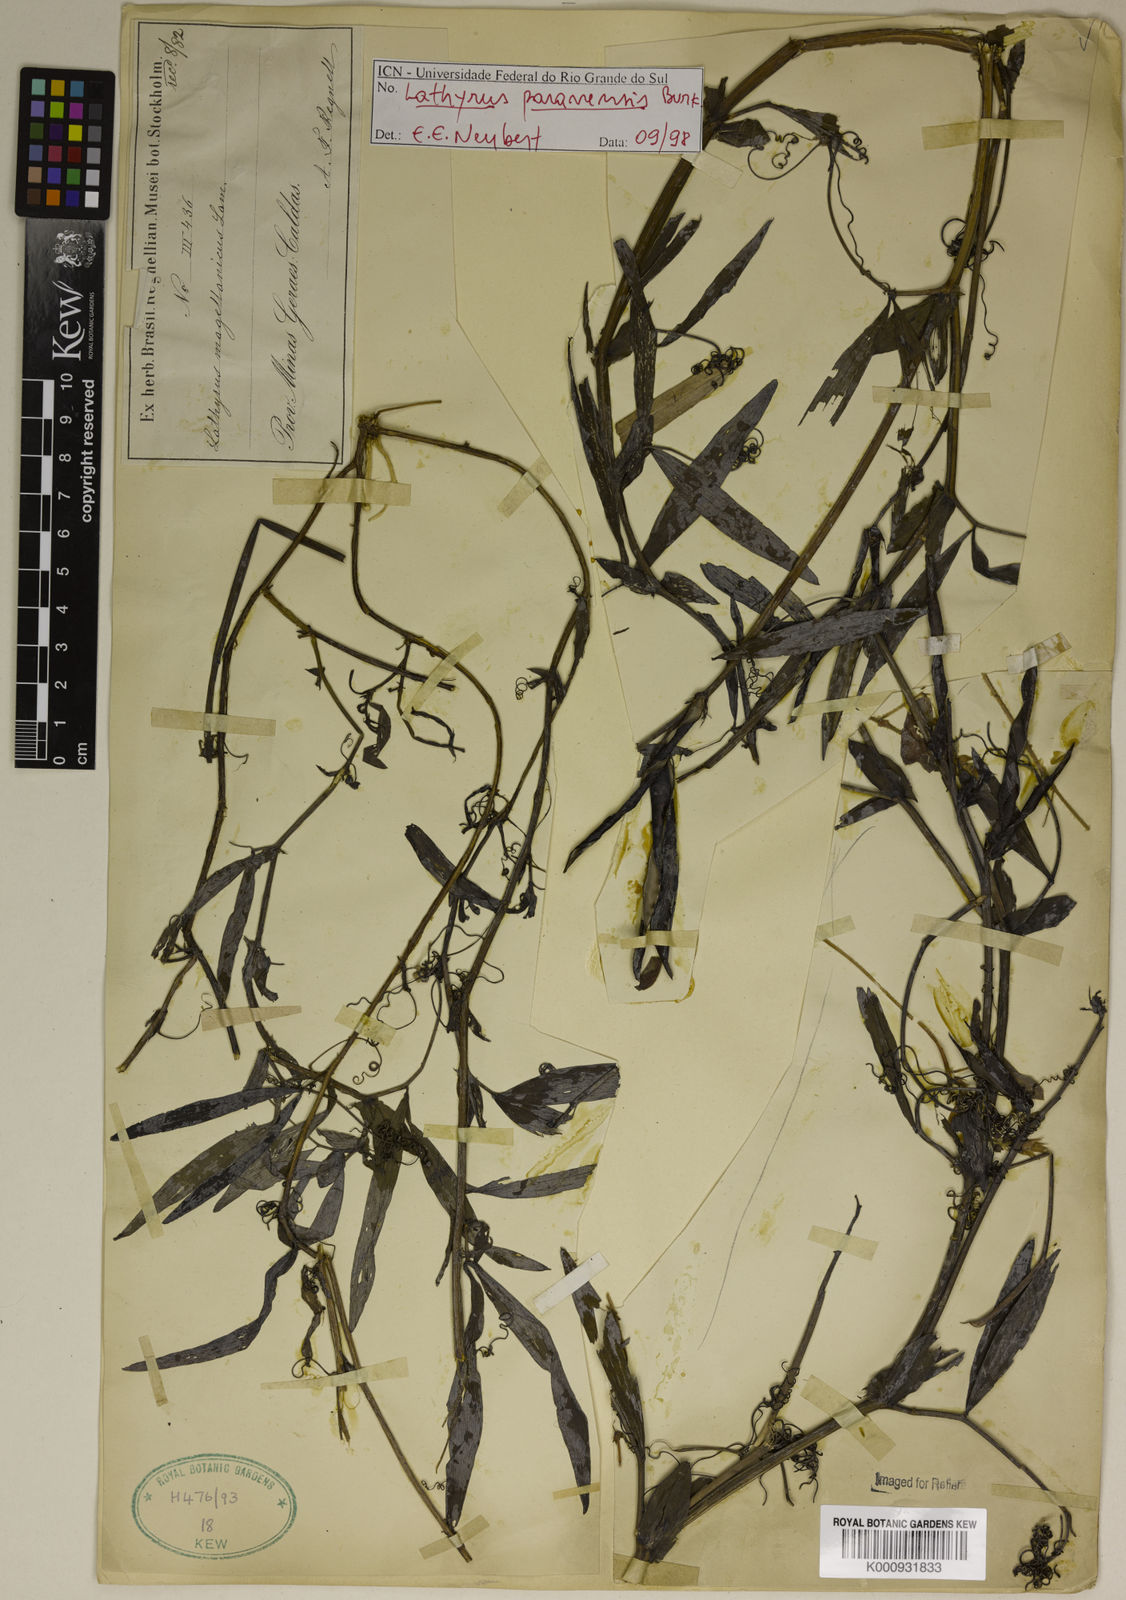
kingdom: Plantae
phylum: Tracheophyta
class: Magnoliopsida
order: Fabales
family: Fabaceae
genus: Lathyrus
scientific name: Lathyrus paranensis
